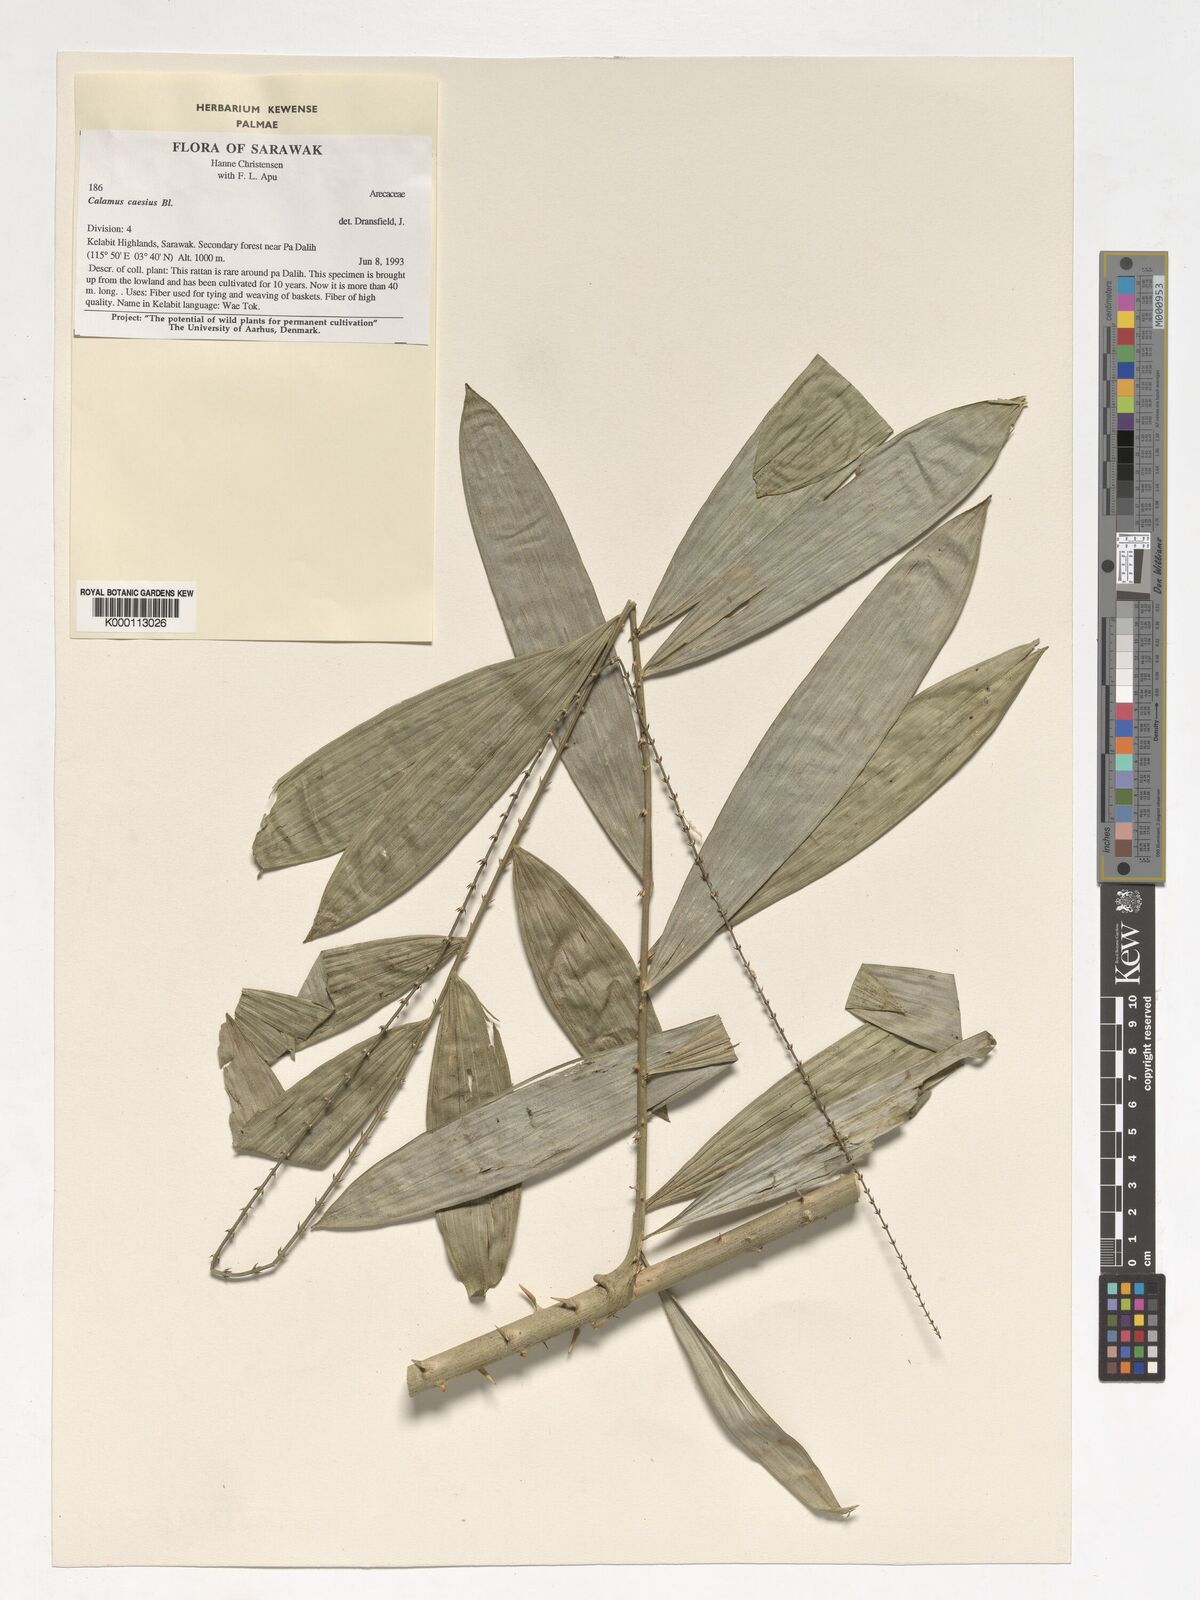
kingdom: Plantae
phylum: Tracheophyta
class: Liliopsida
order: Arecales
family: Arecaceae
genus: Calamus
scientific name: Calamus caesius
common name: Rattan palm
